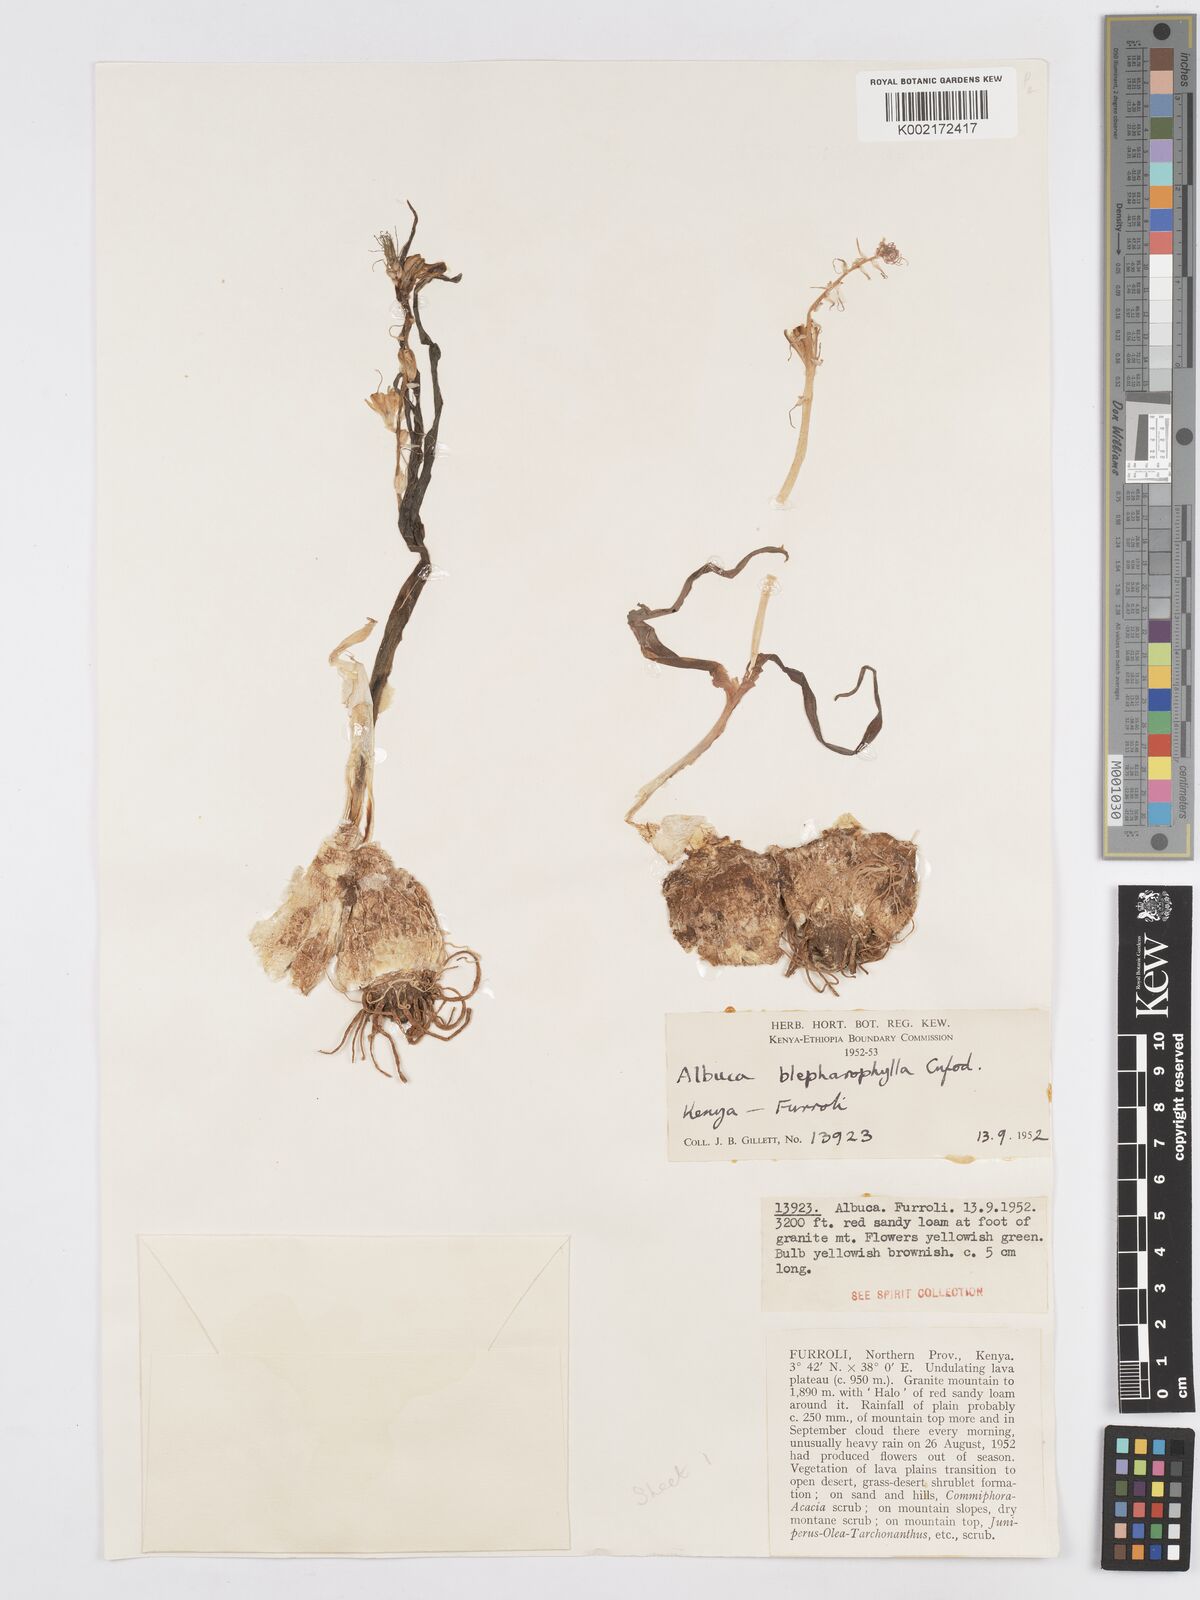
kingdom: Plantae
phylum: Tracheophyta
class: Liliopsida
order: Asparagales
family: Asparagaceae
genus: Albuca
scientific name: Albuca abyssinica
